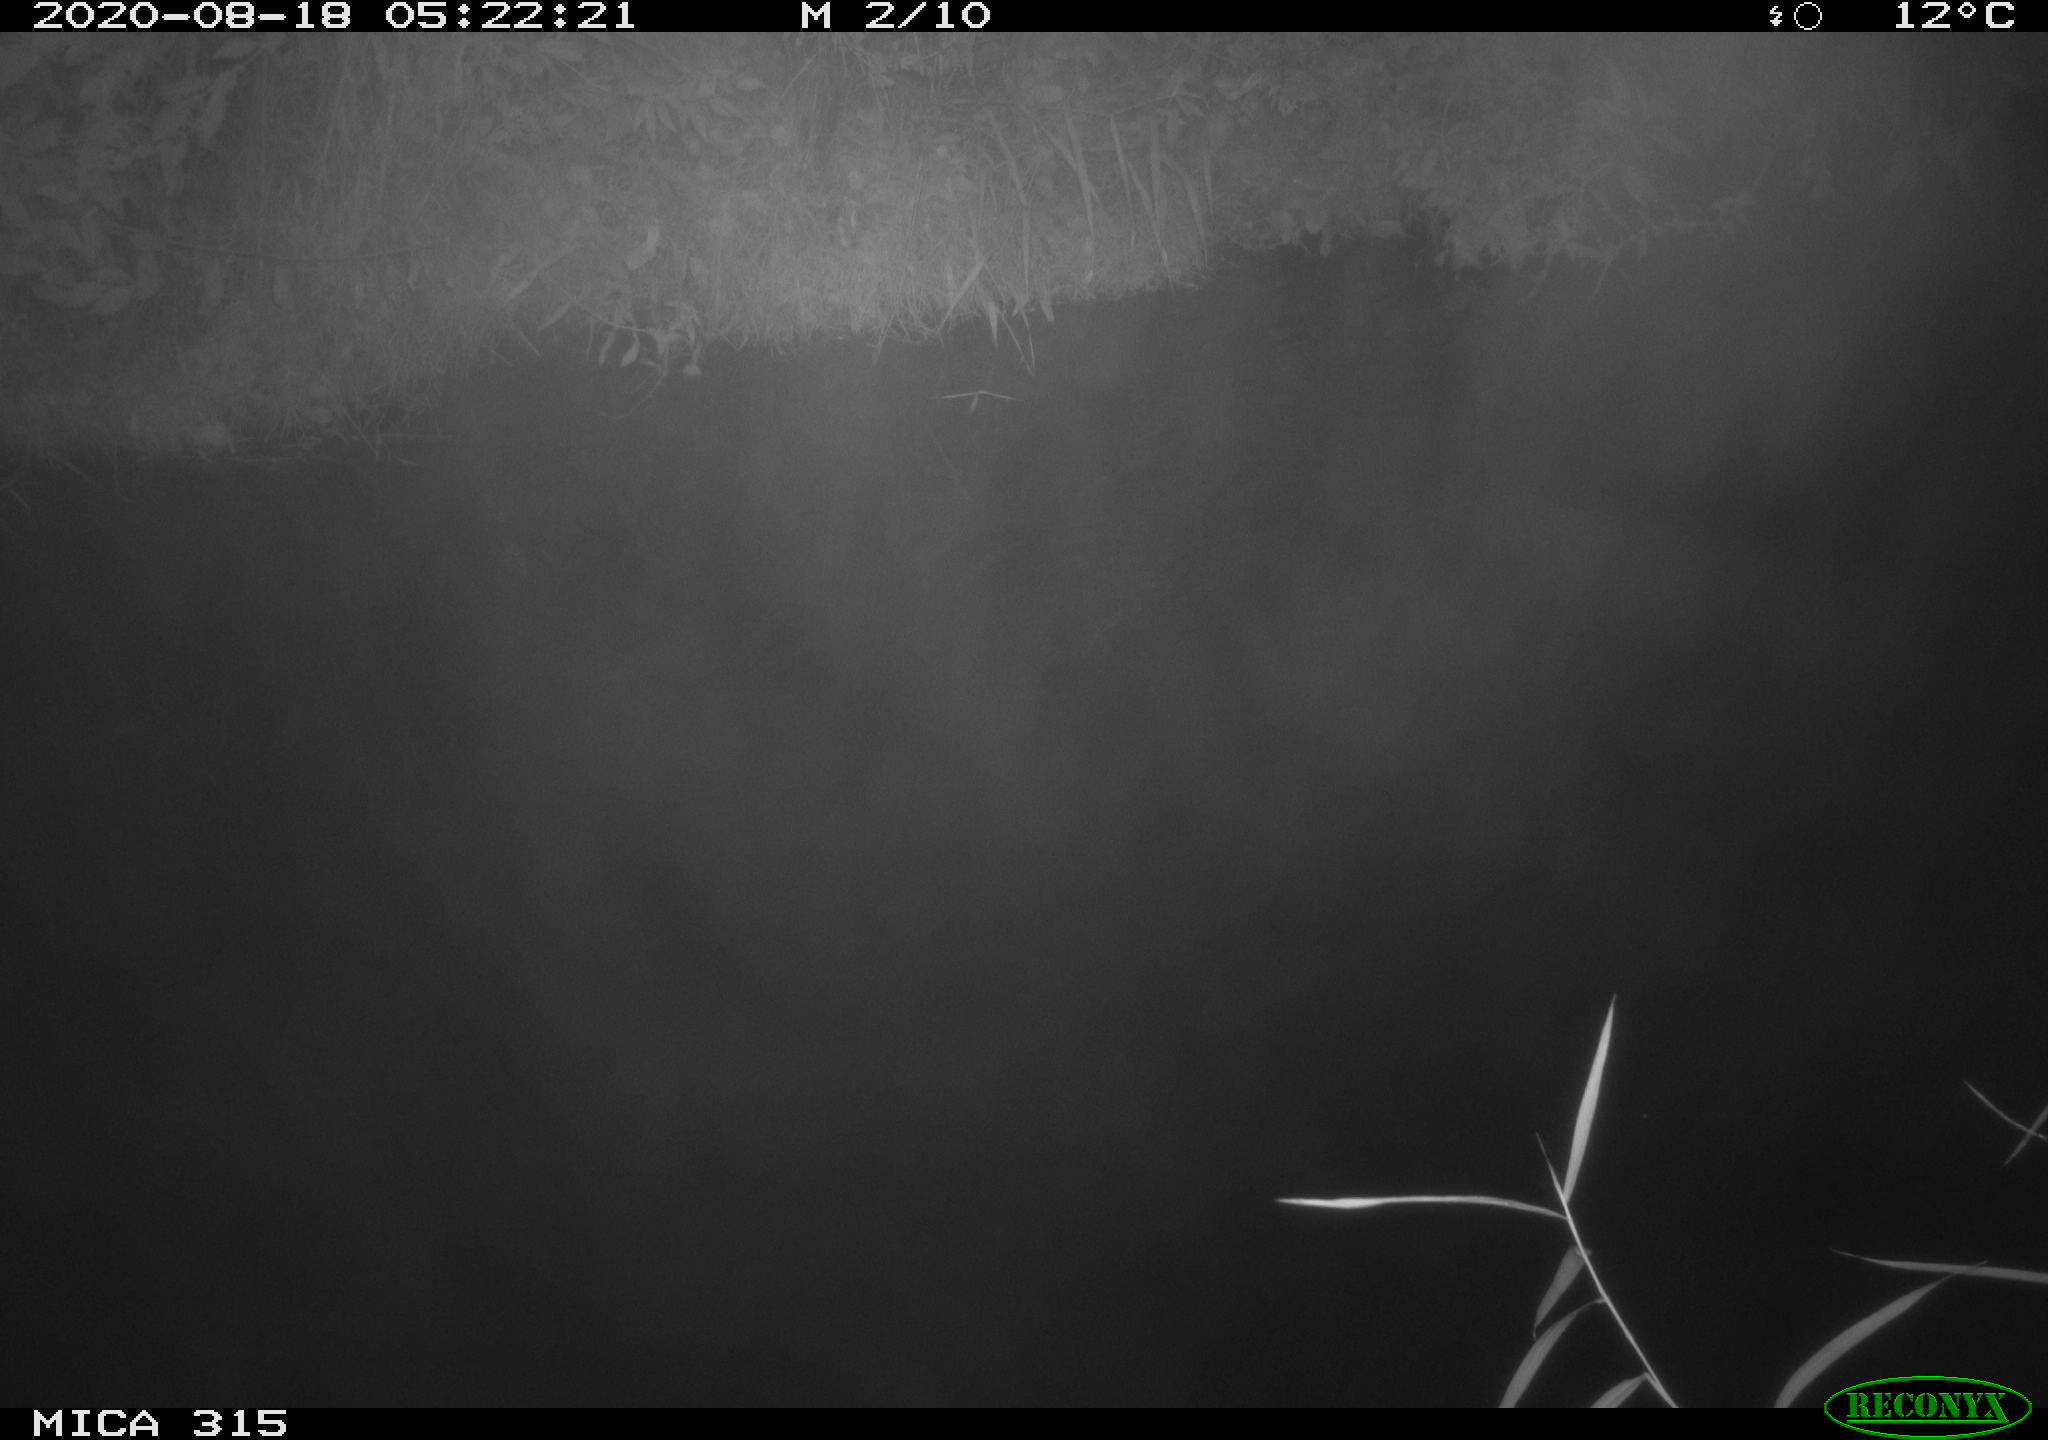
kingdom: Animalia
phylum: Chordata
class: Aves
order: Anseriformes
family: Anatidae
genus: Anas
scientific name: Anas platyrhynchos
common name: Mallard
